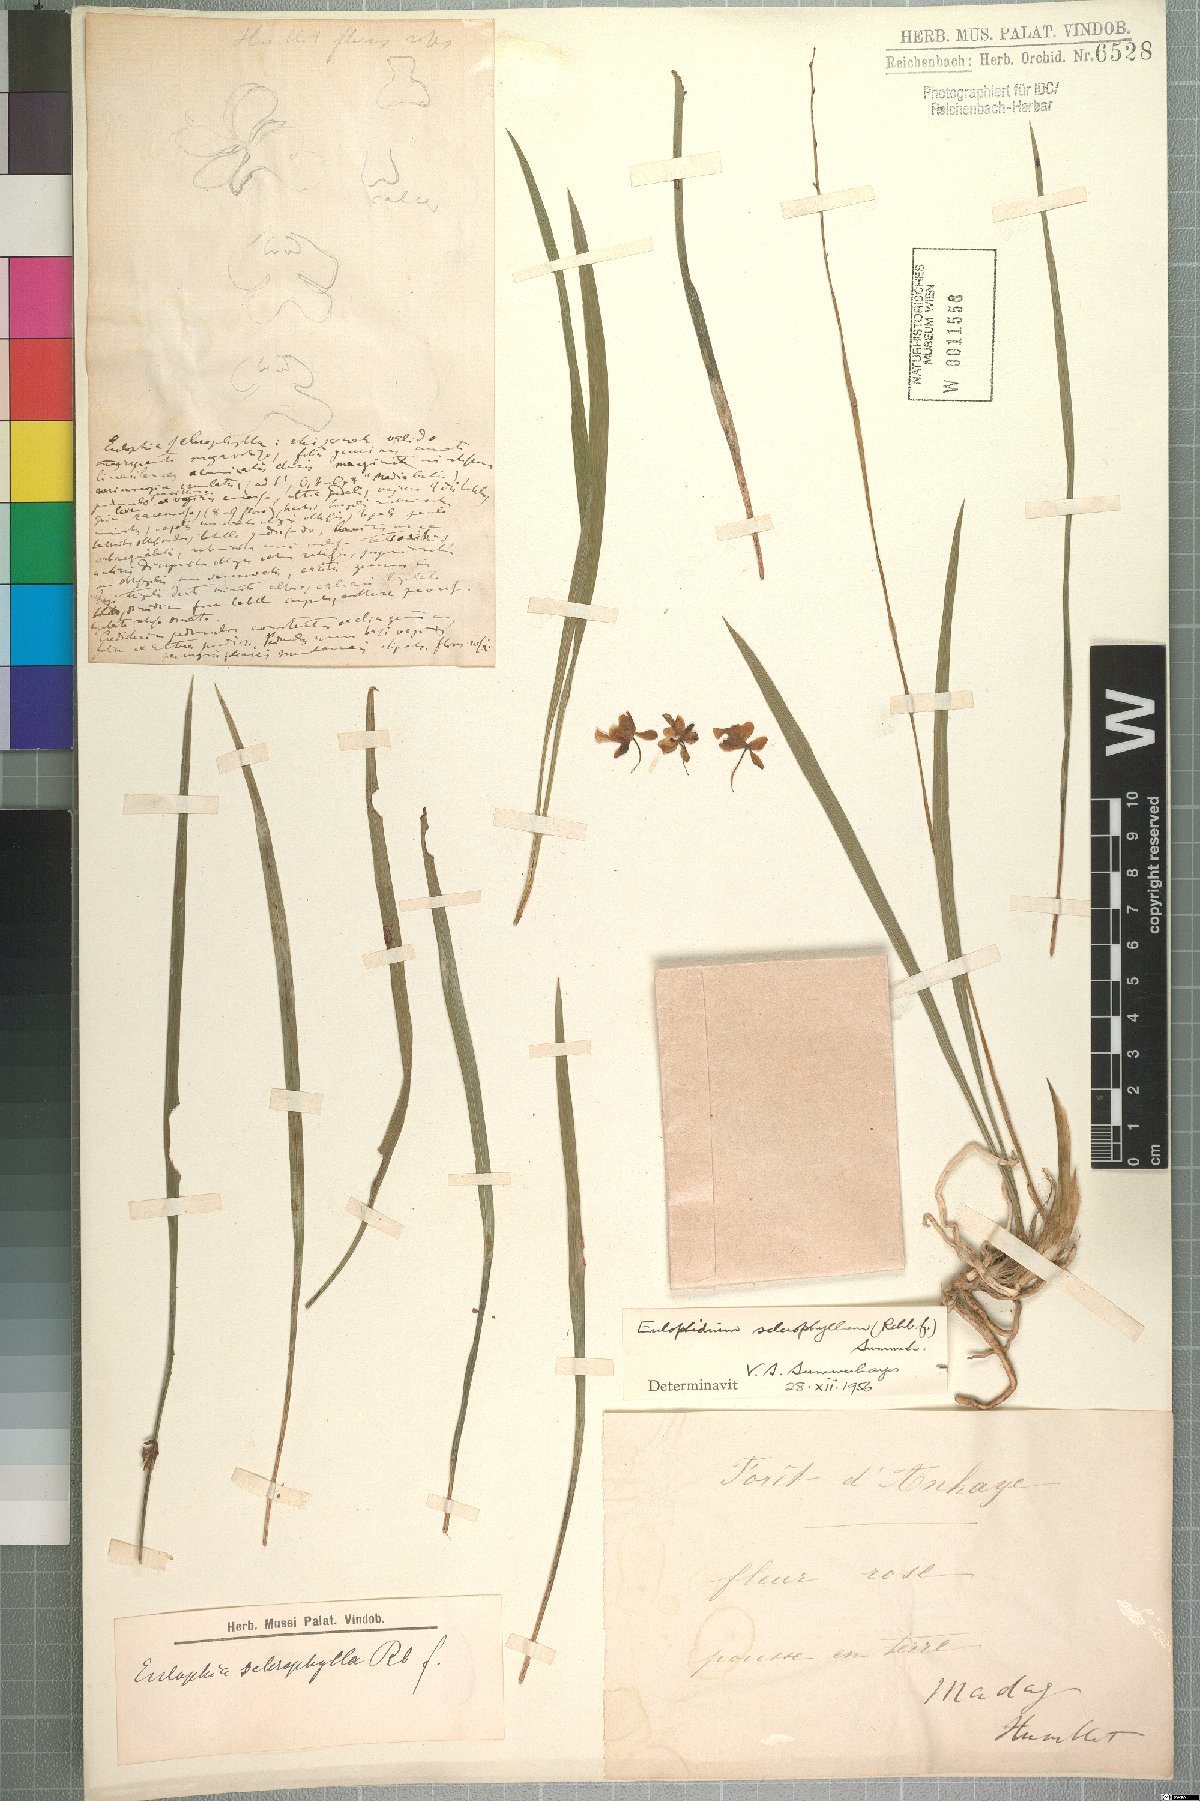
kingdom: Plantae
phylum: Tracheophyta
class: Liliopsida
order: Asparagales
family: Orchidaceae
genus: Eulophia
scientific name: Eulophia sclerophylla
